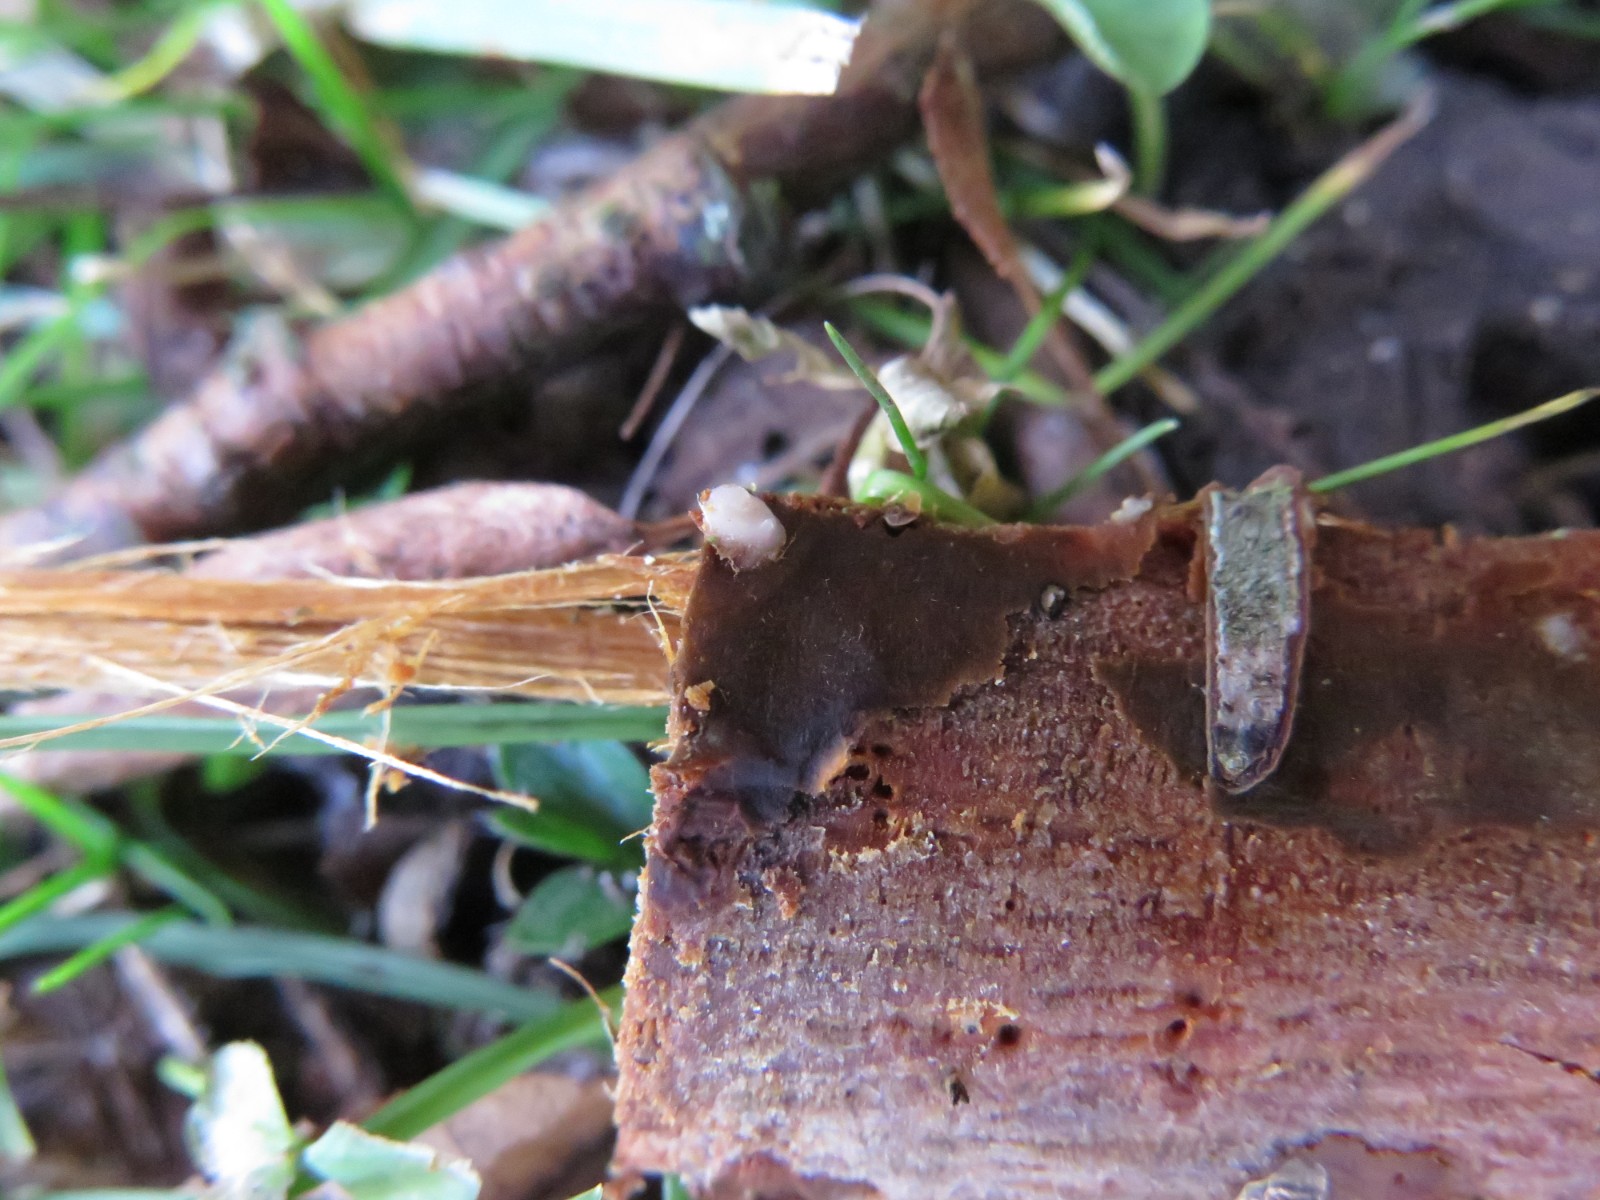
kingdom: Fungi
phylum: Basidiomycota
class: Pucciniomycetes
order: Platygloeales
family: Platygloeaceae
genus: Platygloea
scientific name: Platygloea disciformis
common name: linde-slimklat
